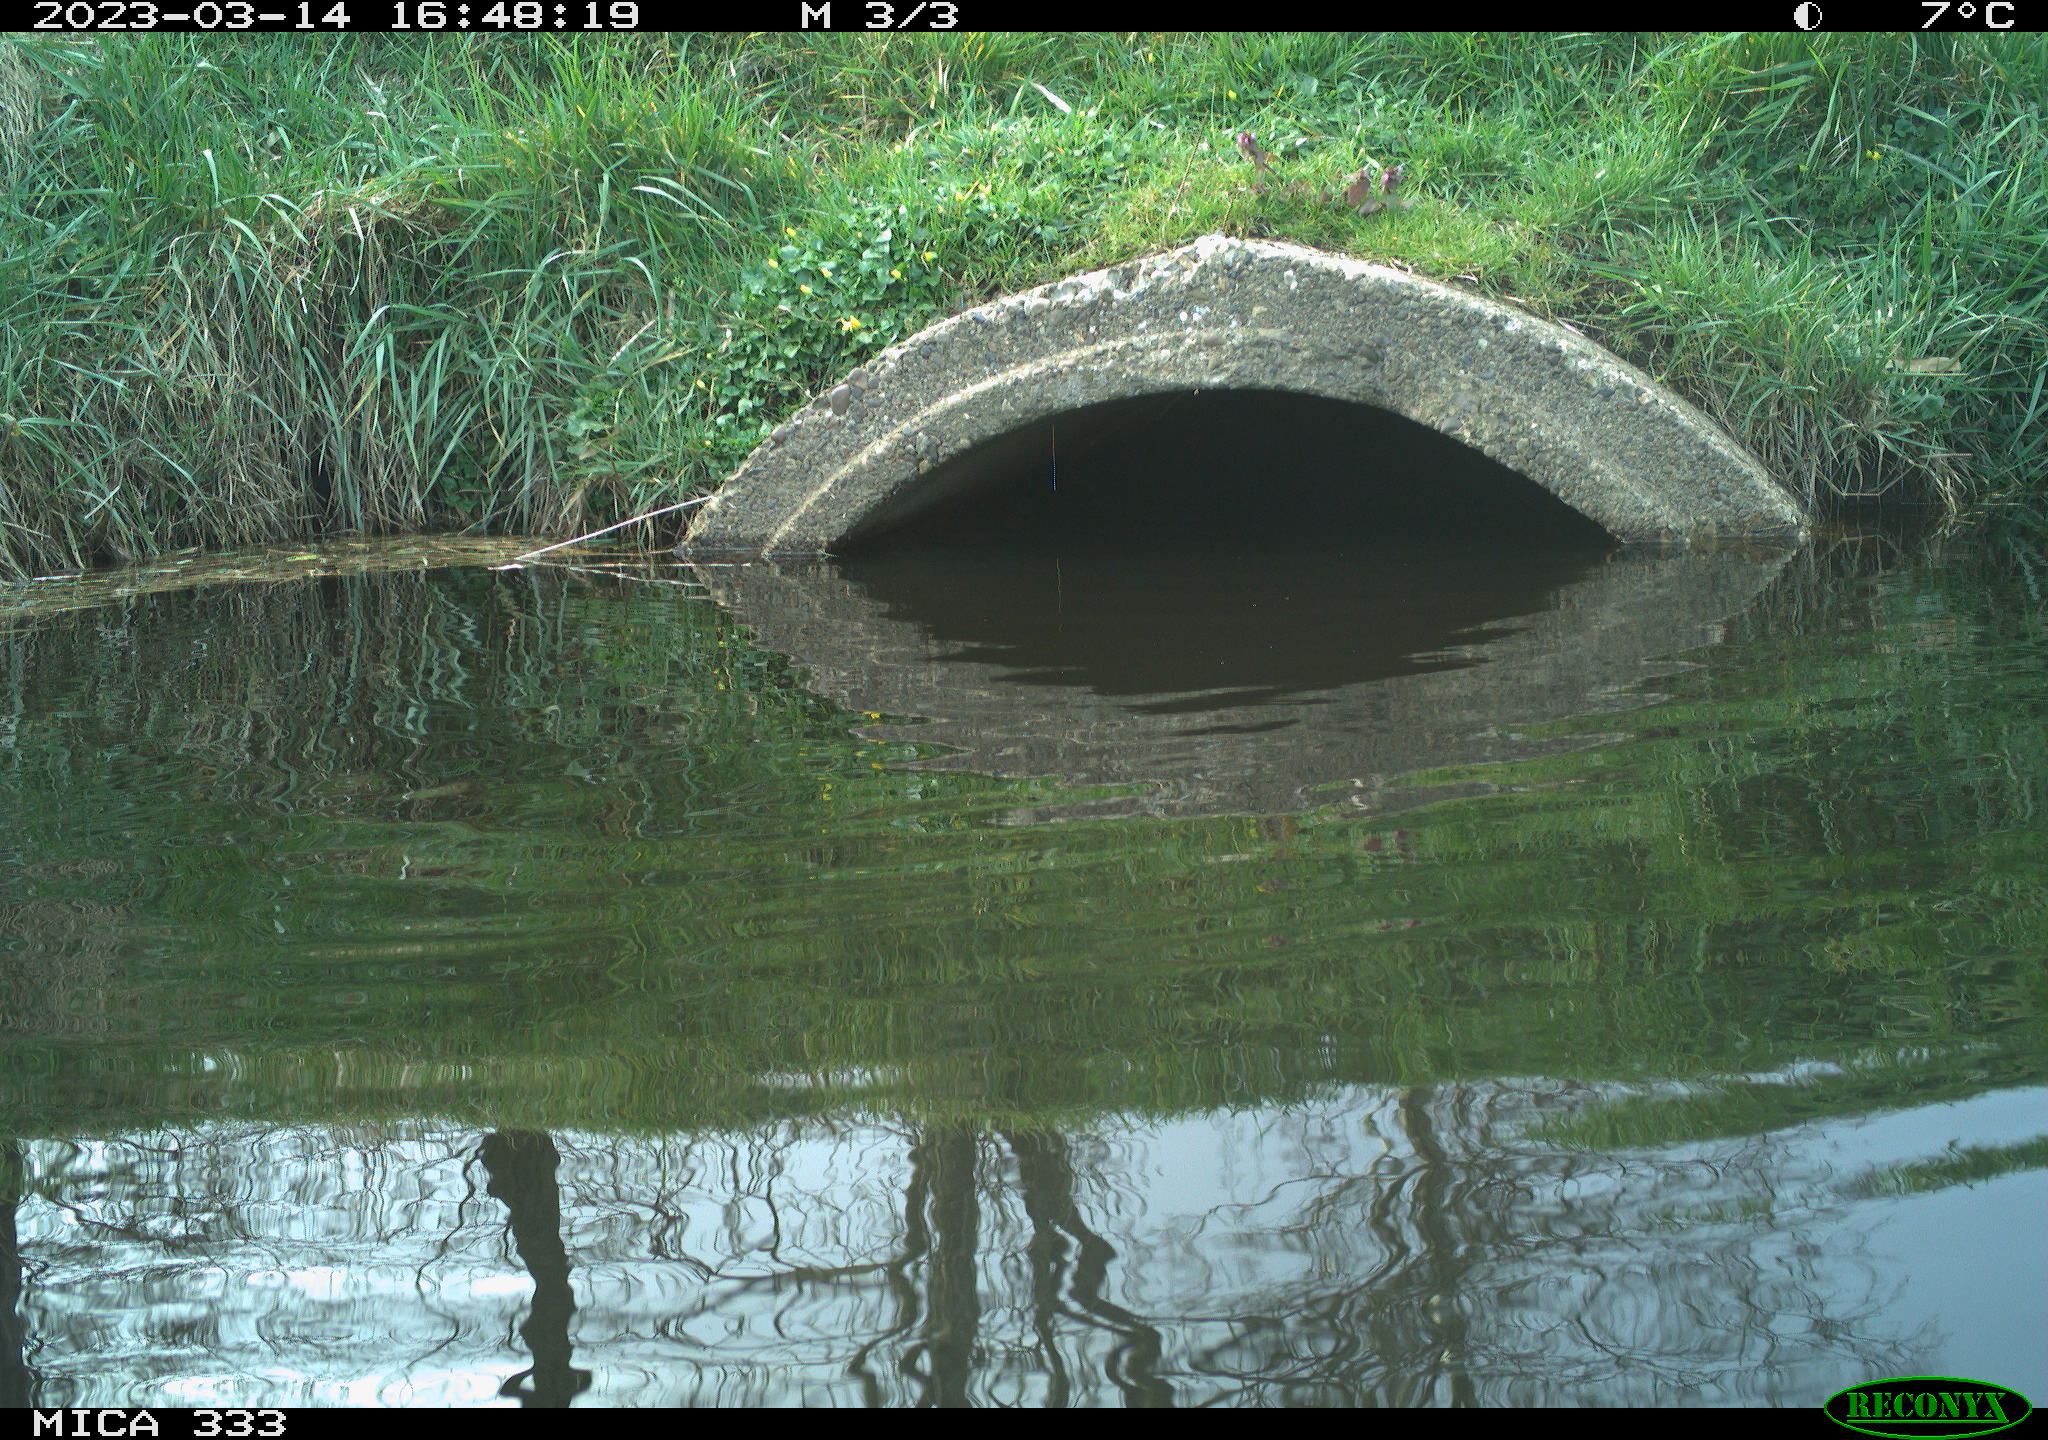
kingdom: Animalia
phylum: Chordata
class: Aves
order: Gruiformes
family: Rallidae
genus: Gallinula
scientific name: Gallinula chloropus
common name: Common moorhen
